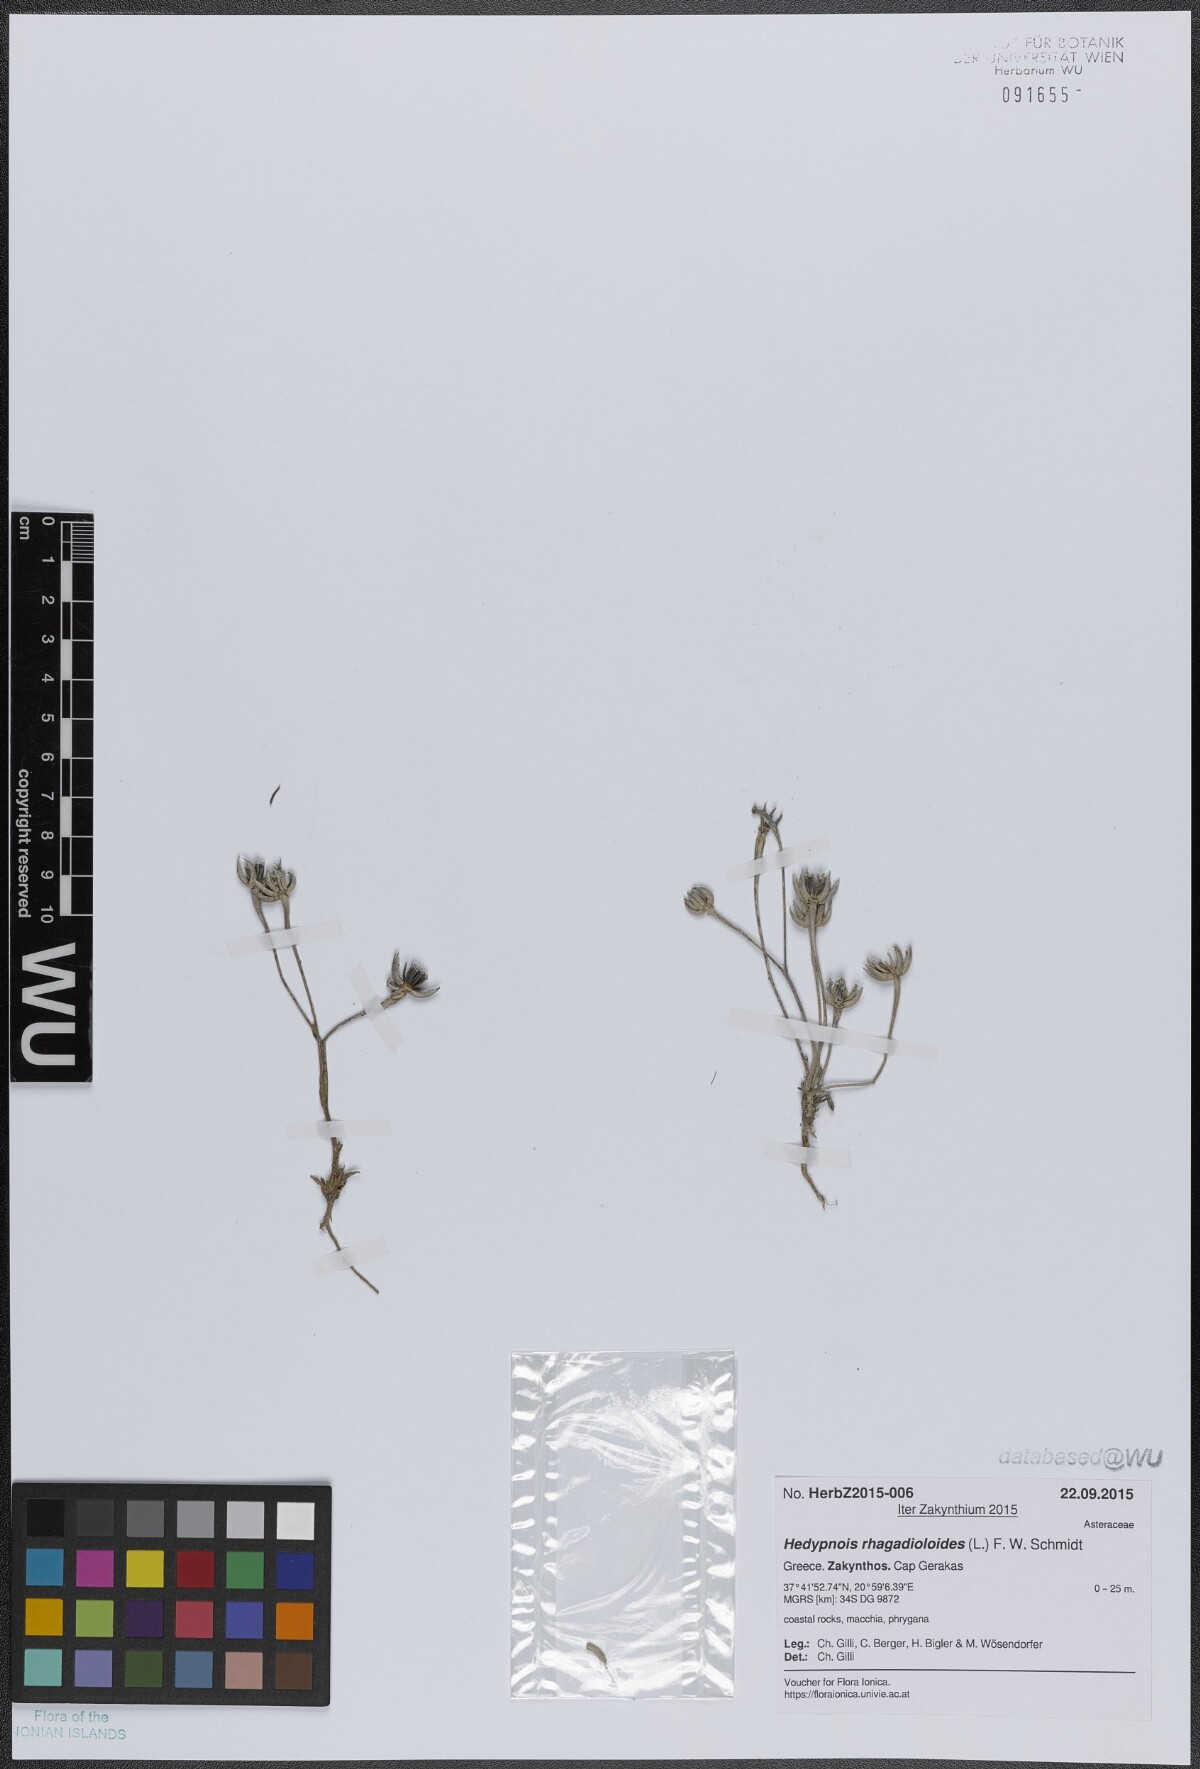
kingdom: Plantae
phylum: Tracheophyta
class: Magnoliopsida
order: Asterales
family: Asteraceae
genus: Hedypnois
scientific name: Hedypnois rhagadioloides
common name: Cretan weed
